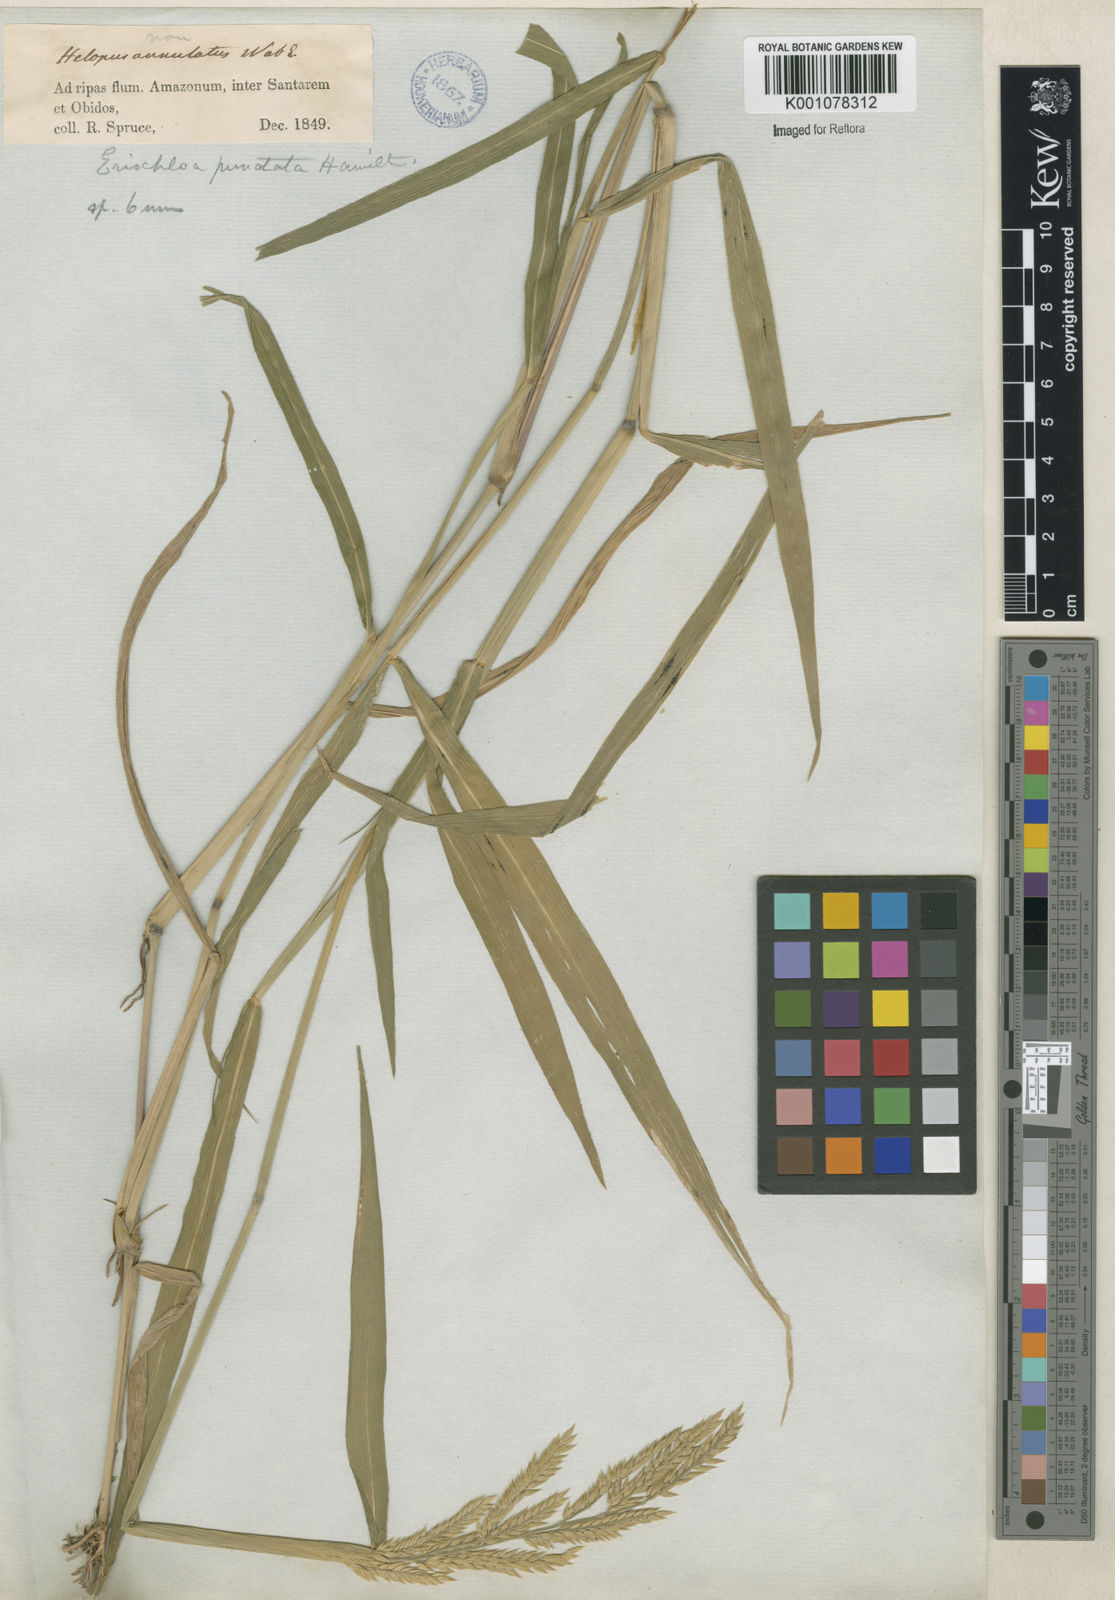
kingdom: Plantae
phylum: Tracheophyta
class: Liliopsida
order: Poales
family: Poaceae
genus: Eriochloa
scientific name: Eriochloa punctata
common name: Louisiana cupgrass
